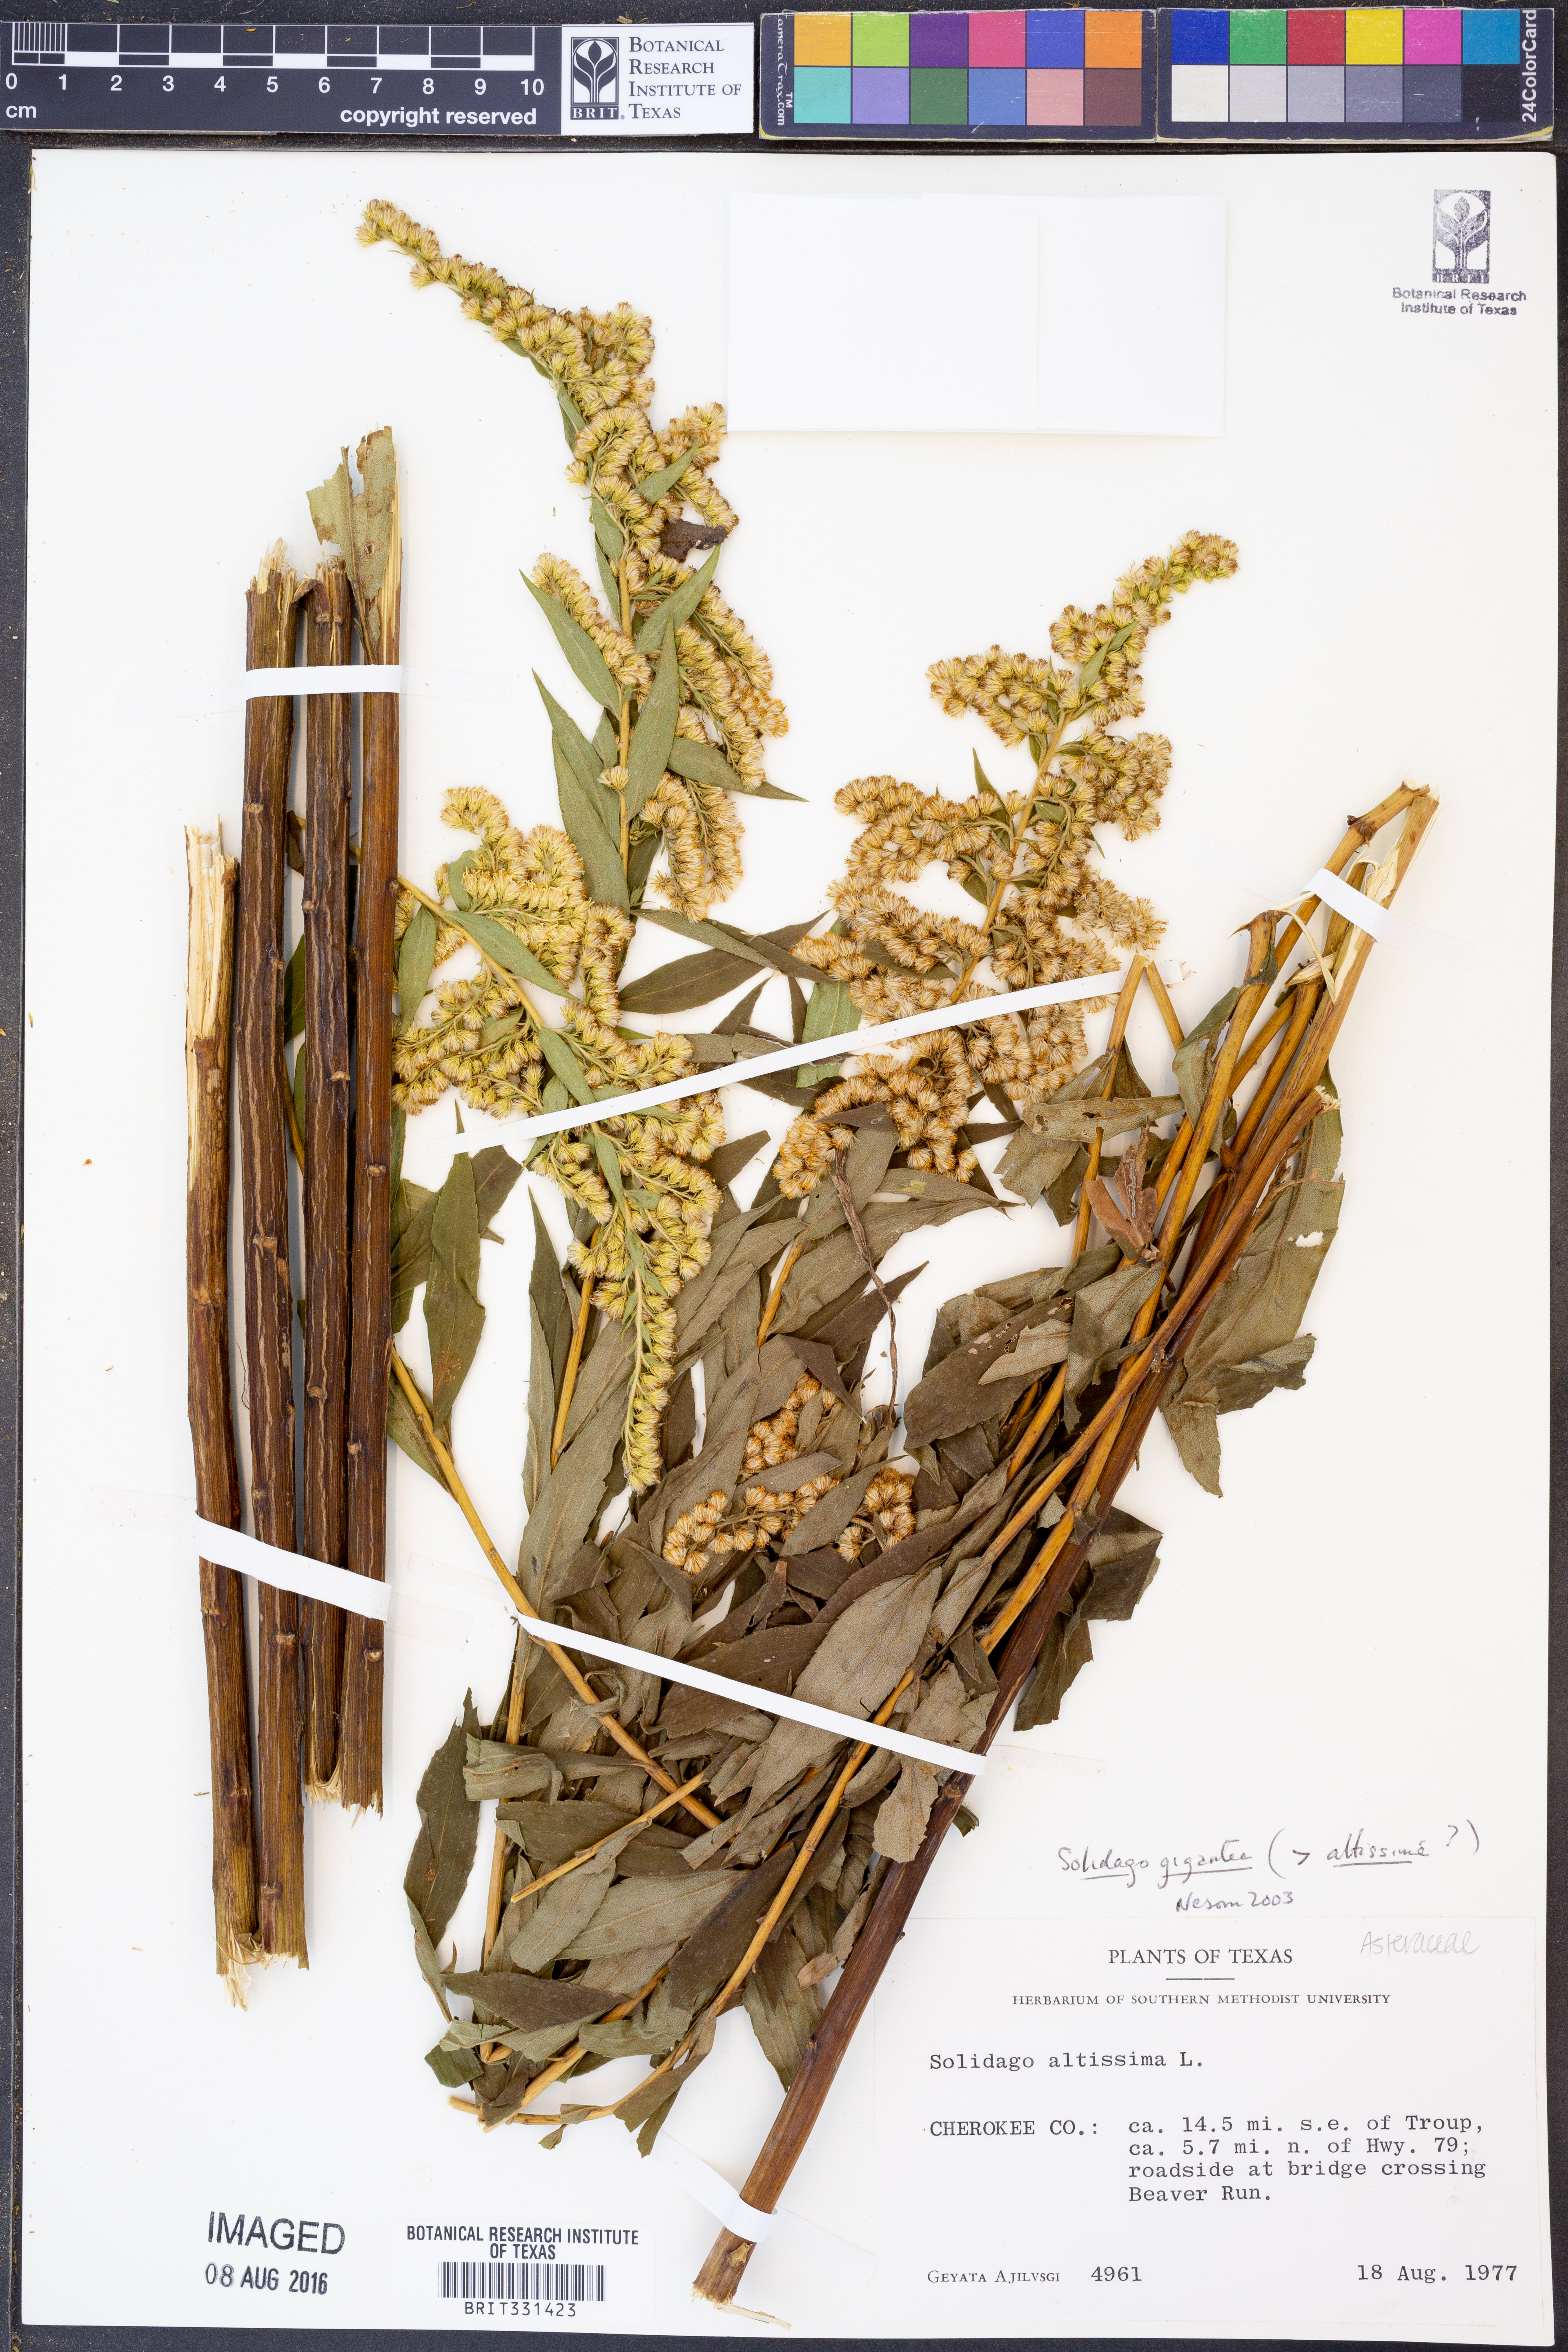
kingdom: Plantae
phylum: Tracheophyta
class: Magnoliopsida
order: Asterales
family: Asteraceae
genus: Solidago
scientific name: Solidago gigantea
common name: Giant goldenrod
